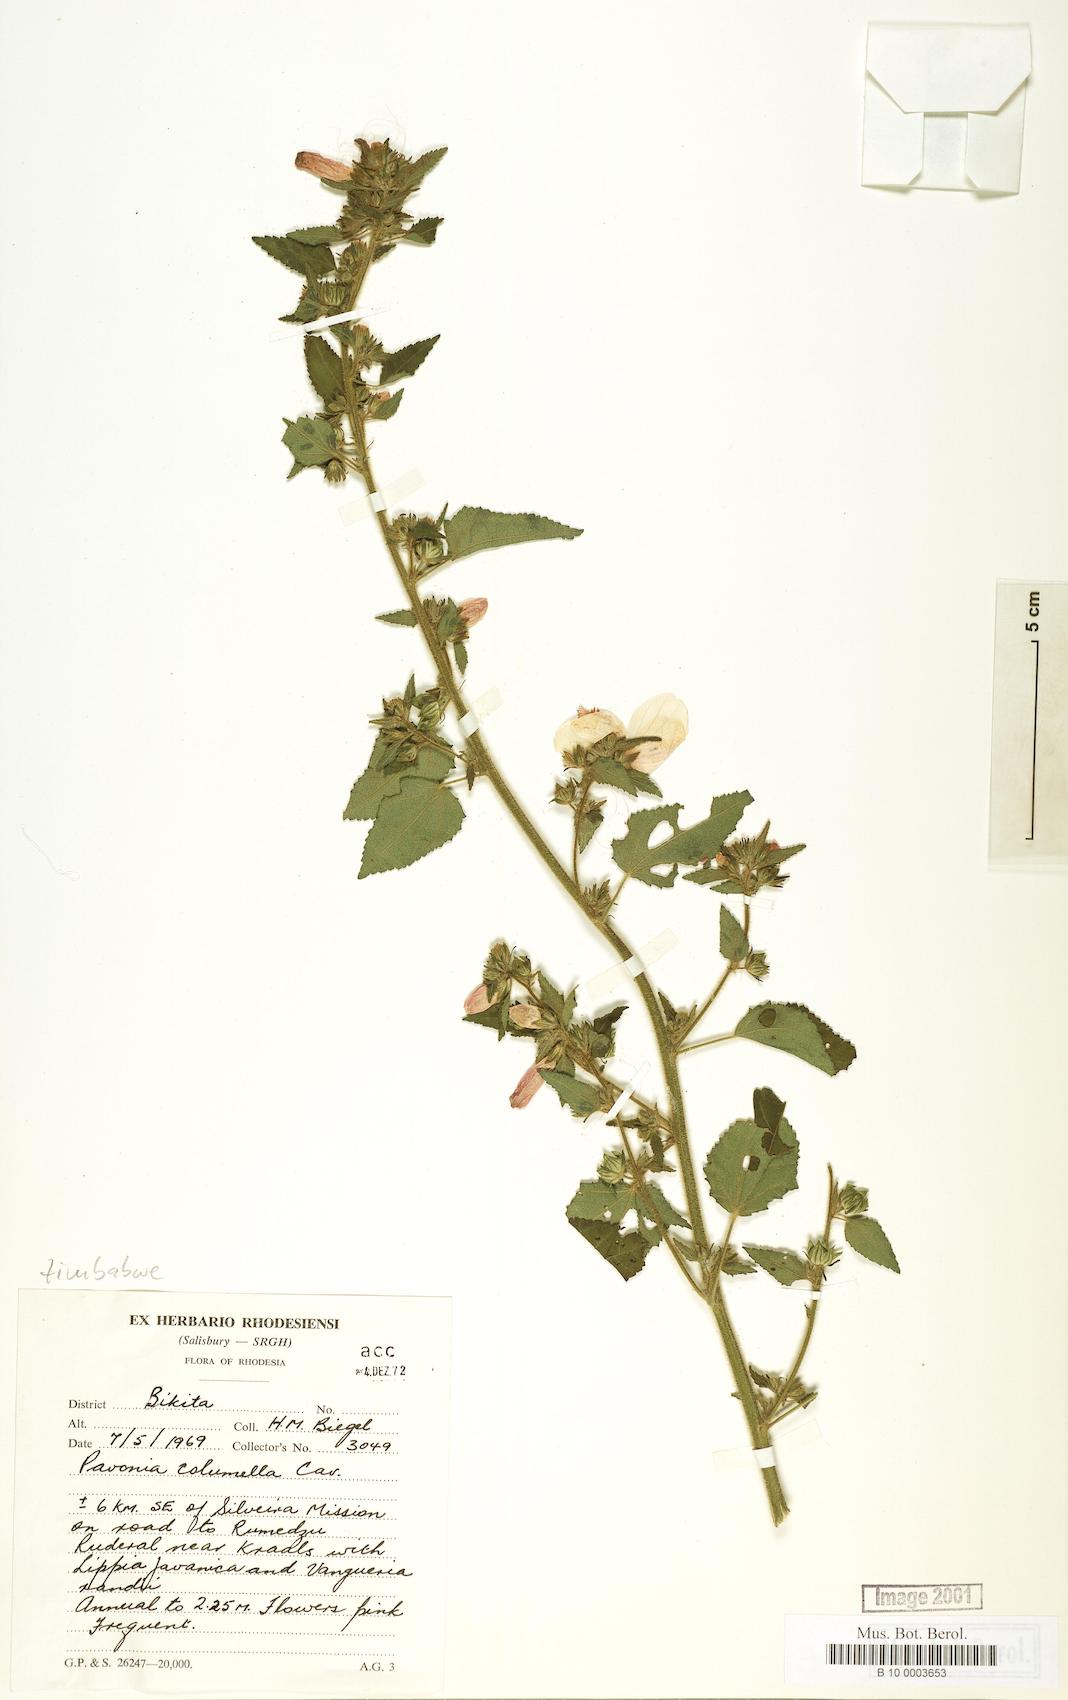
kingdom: Plantae
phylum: Tracheophyta
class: Magnoliopsida
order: Malvales
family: Malvaceae
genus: Pavonia
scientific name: Pavonia columella
